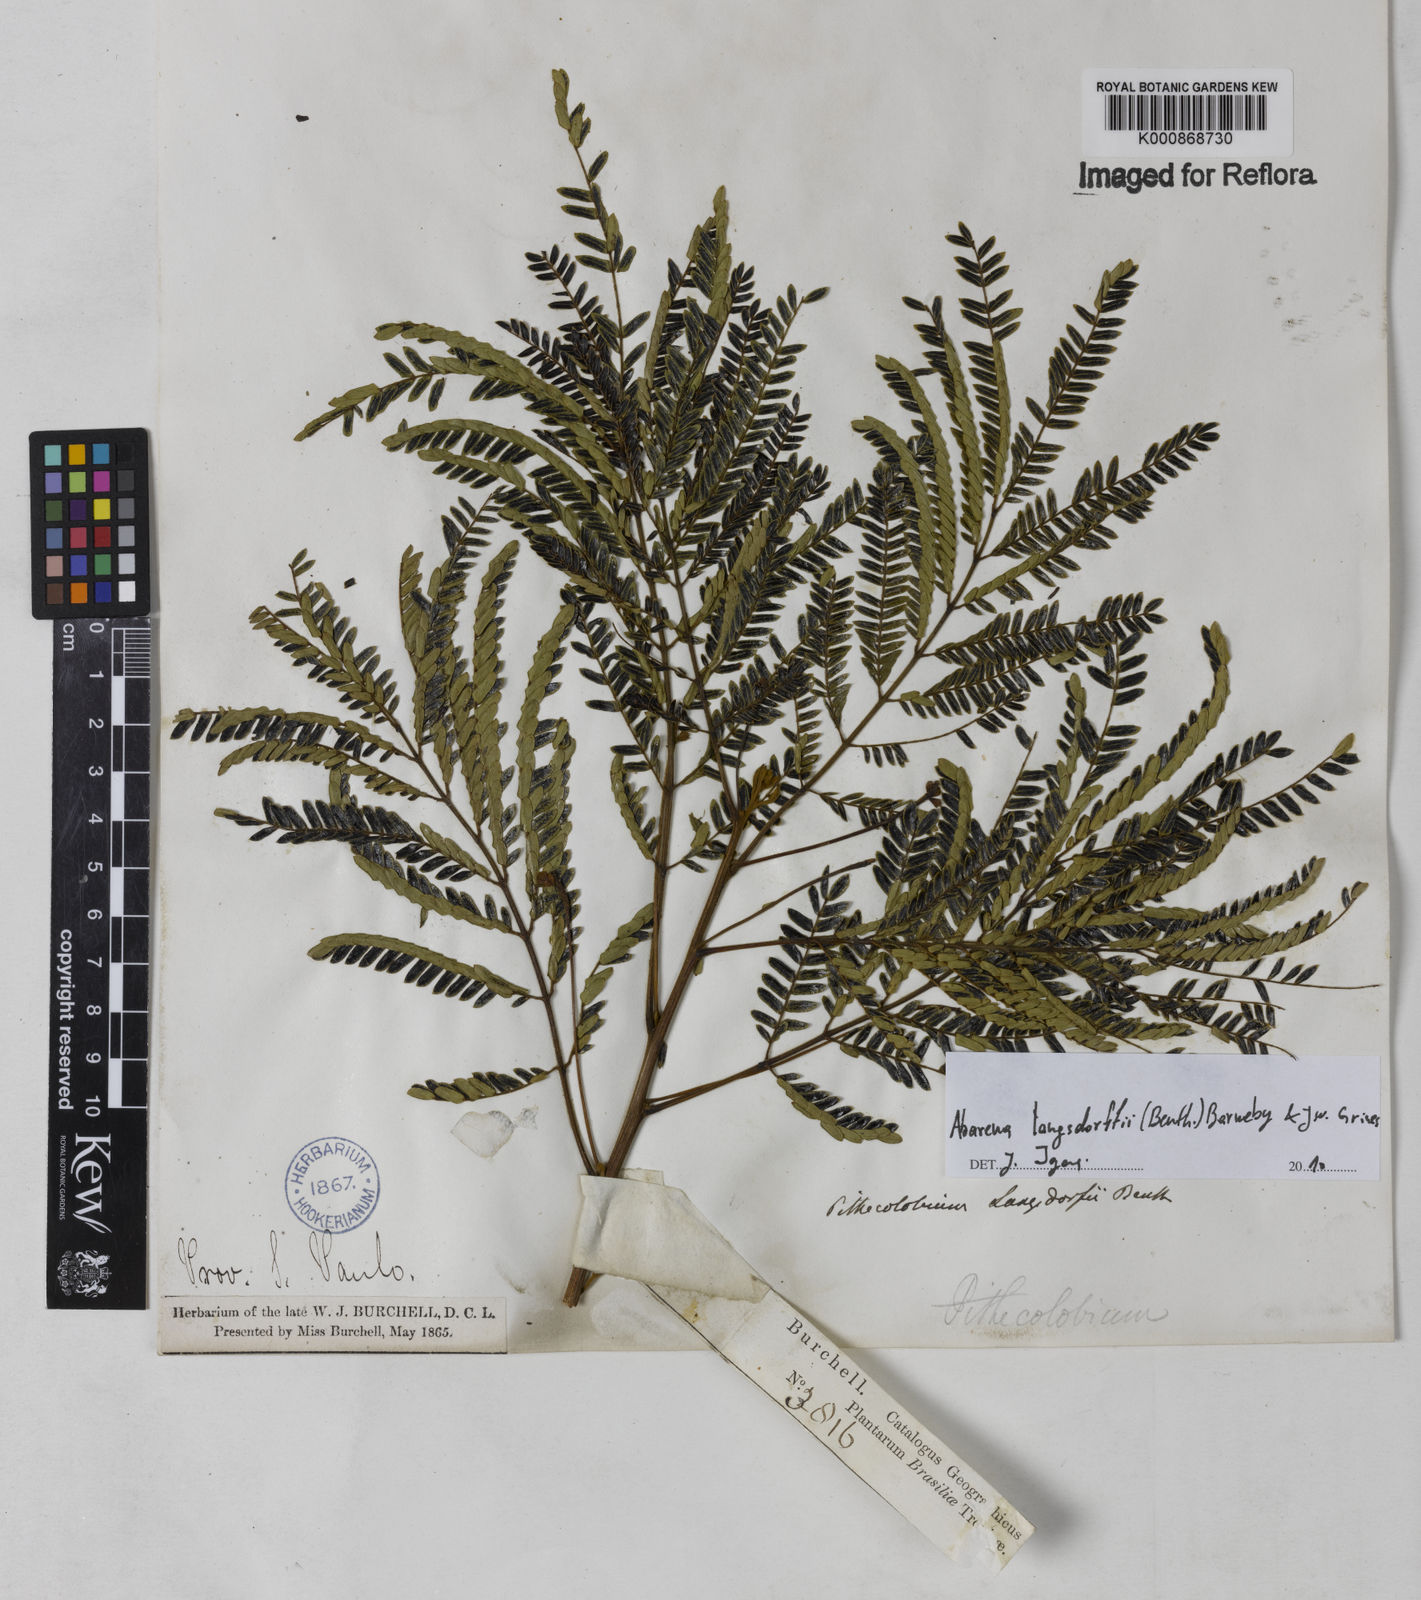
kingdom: Plantae
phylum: Tracheophyta
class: Magnoliopsida
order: Fabales
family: Fabaceae
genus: Jupunba
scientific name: Jupunba langsdorffii
